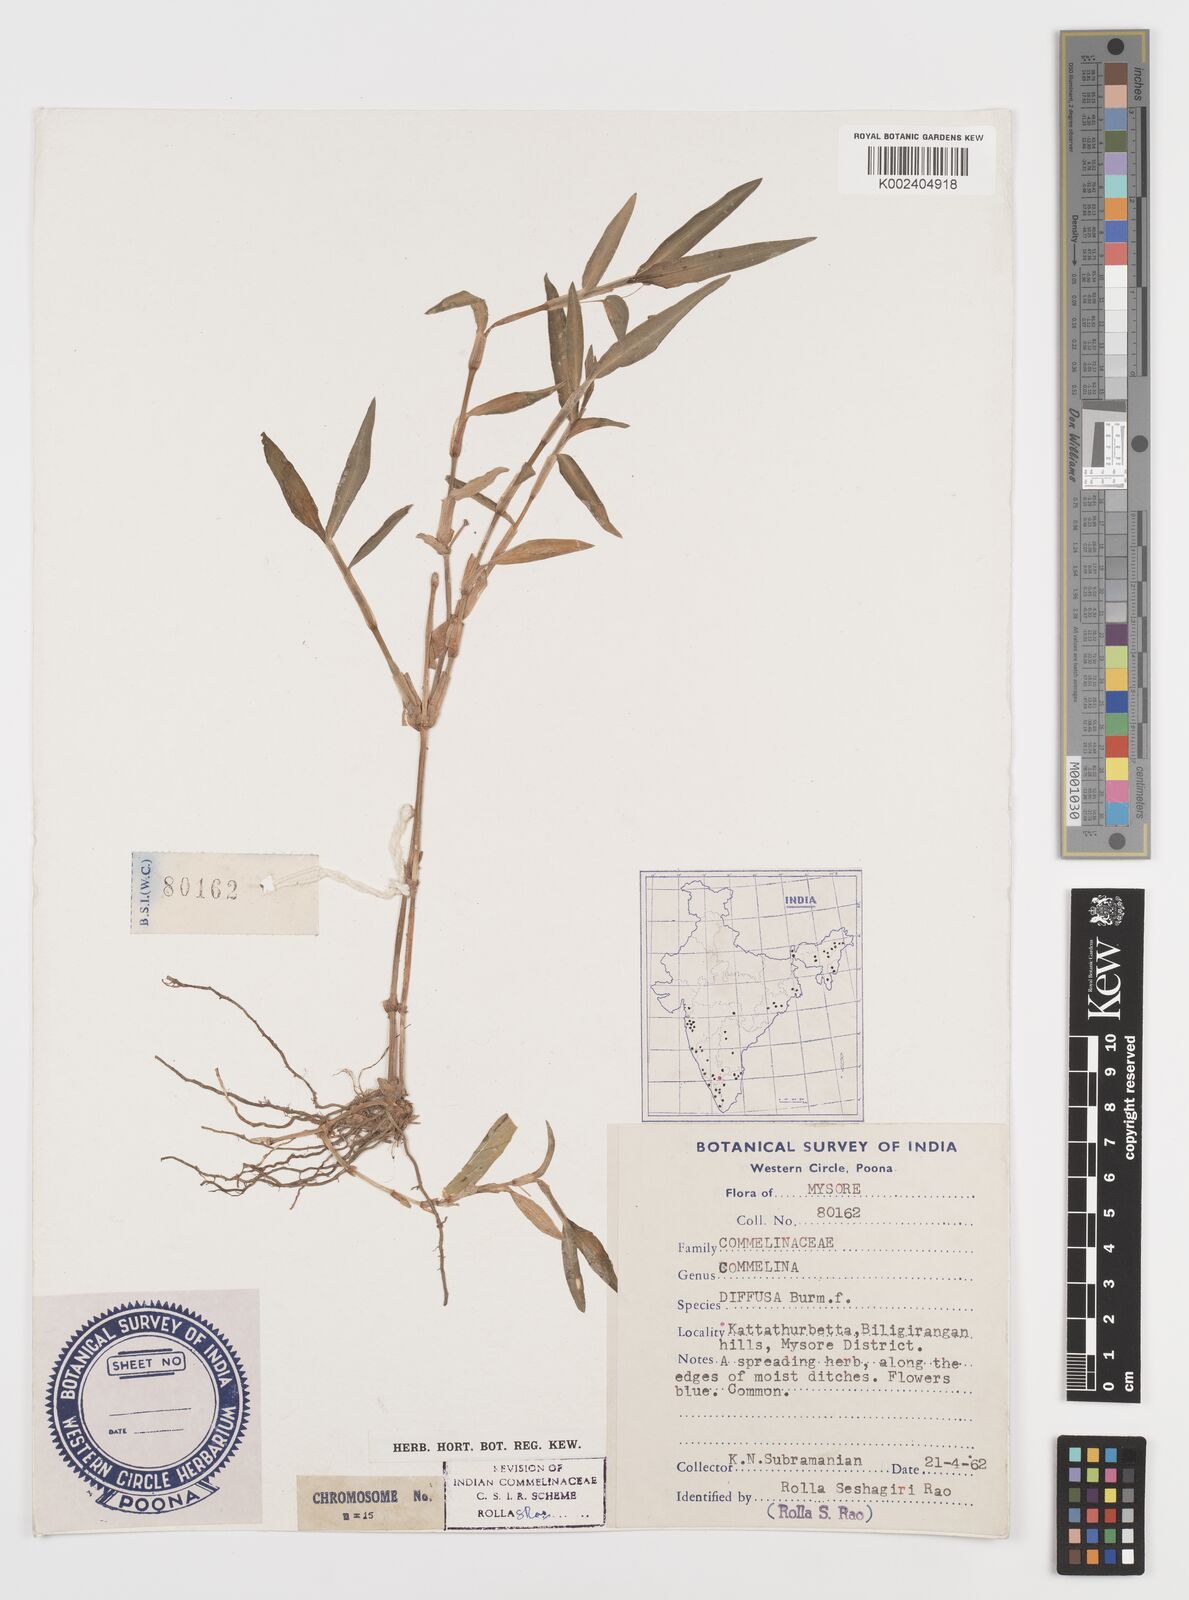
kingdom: Plantae
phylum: Tracheophyta
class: Liliopsida
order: Commelinales
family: Commelinaceae
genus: Commelina
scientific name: Commelina diffusa
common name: Climbing dayflower
